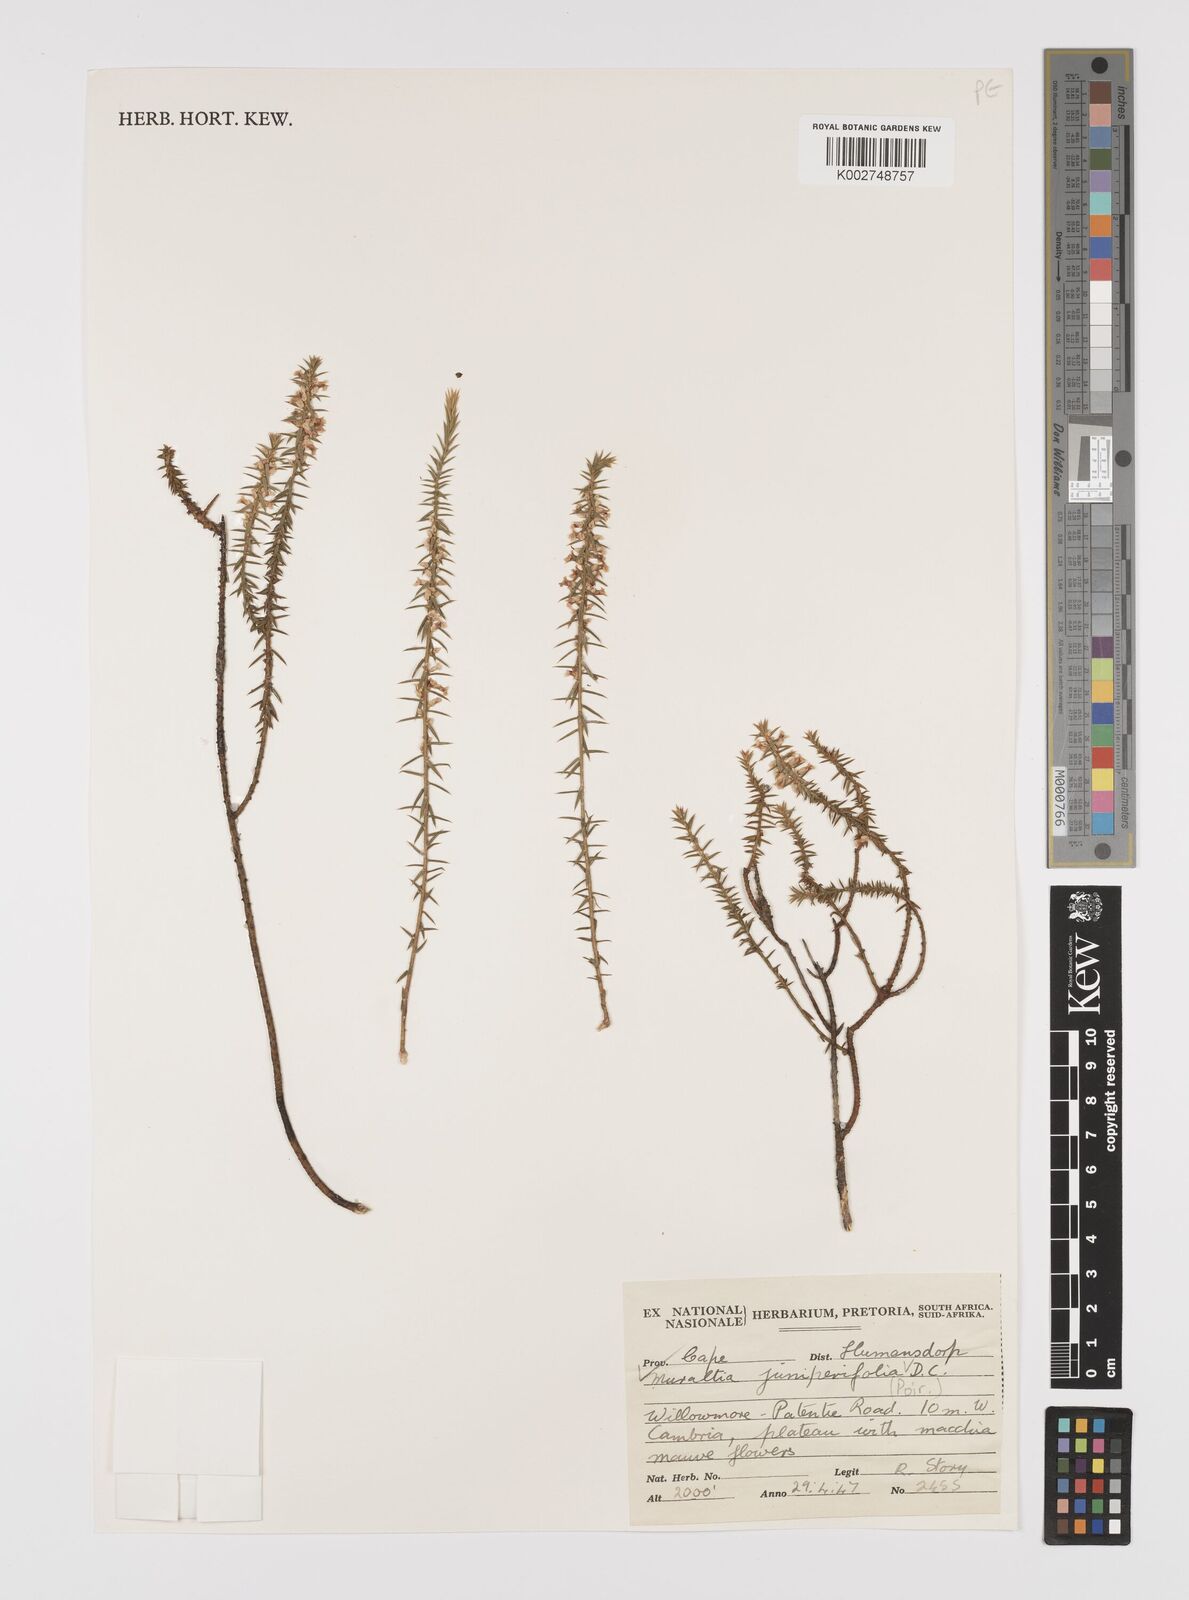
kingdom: Plantae
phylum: Tracheophyta
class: Magnoliopsida
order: Fabales
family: Polygalaceae
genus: Muraltia
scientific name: Muraltia juniperifolia
